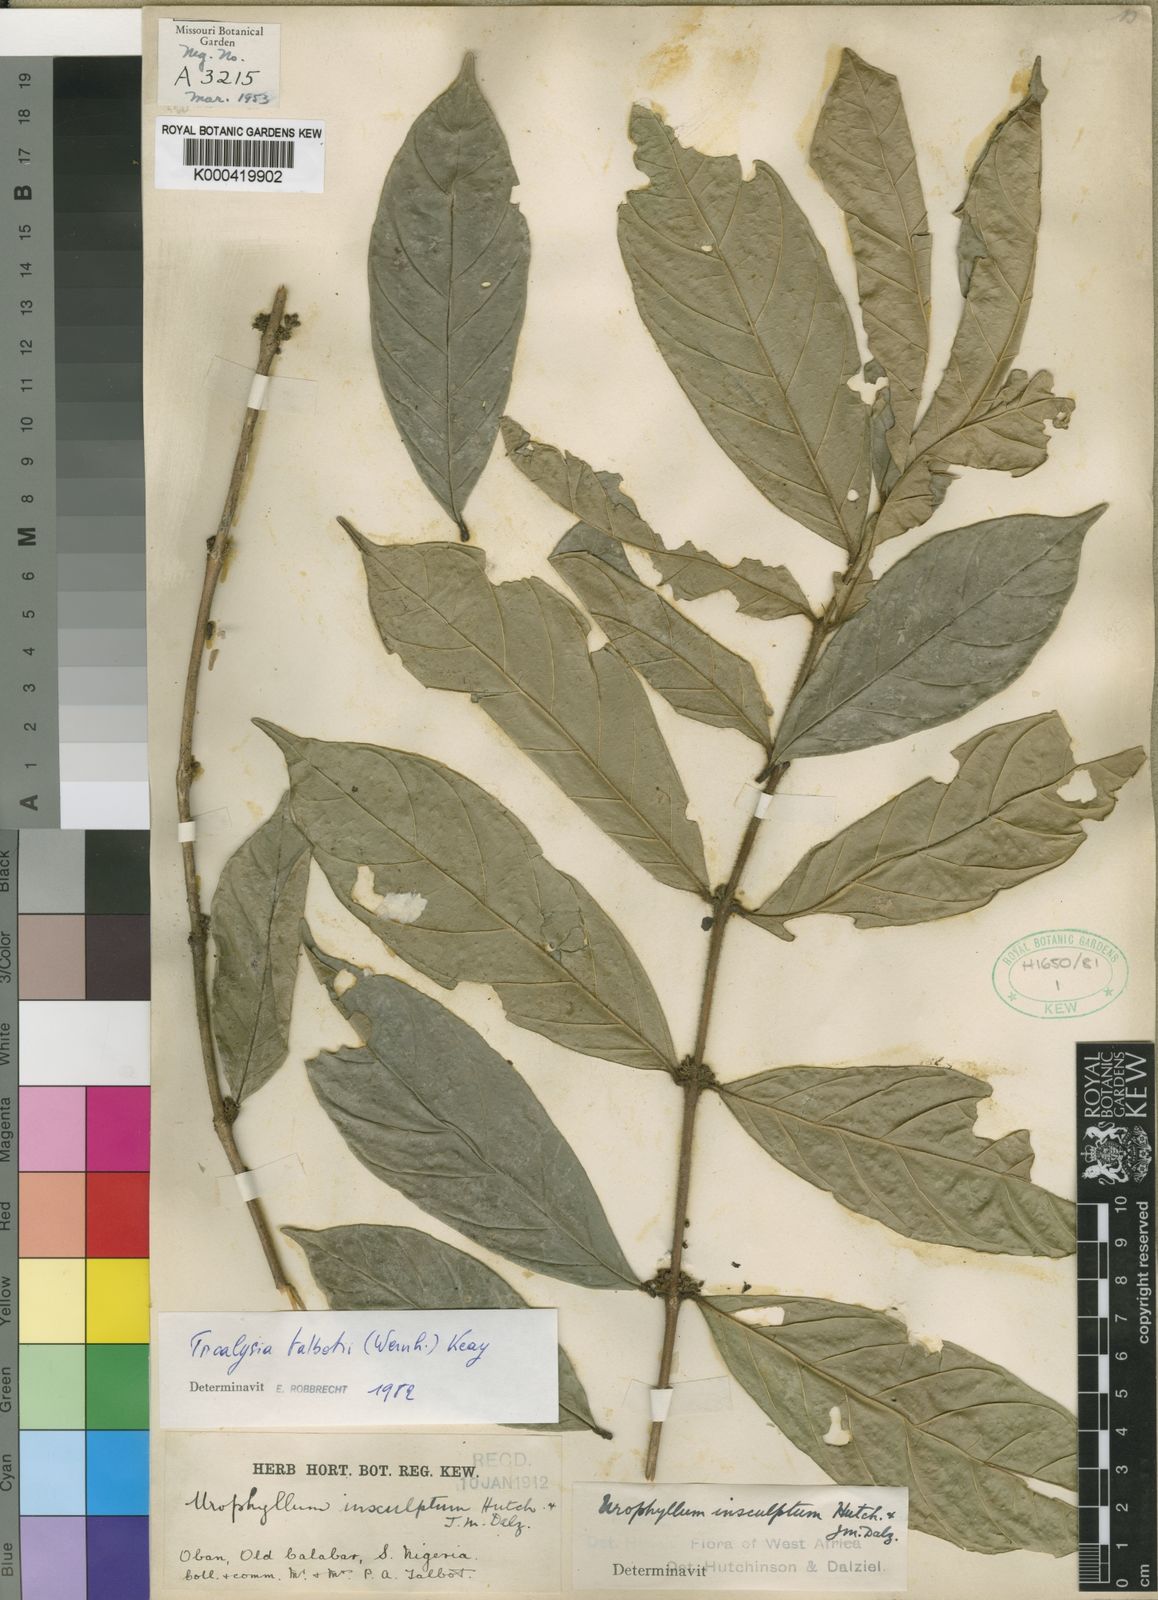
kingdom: Plantae
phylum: Tracheophyta
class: Magnoliopsida
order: Gentianales
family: Rubiaceae
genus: Empogona
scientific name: Empogona talbotii
